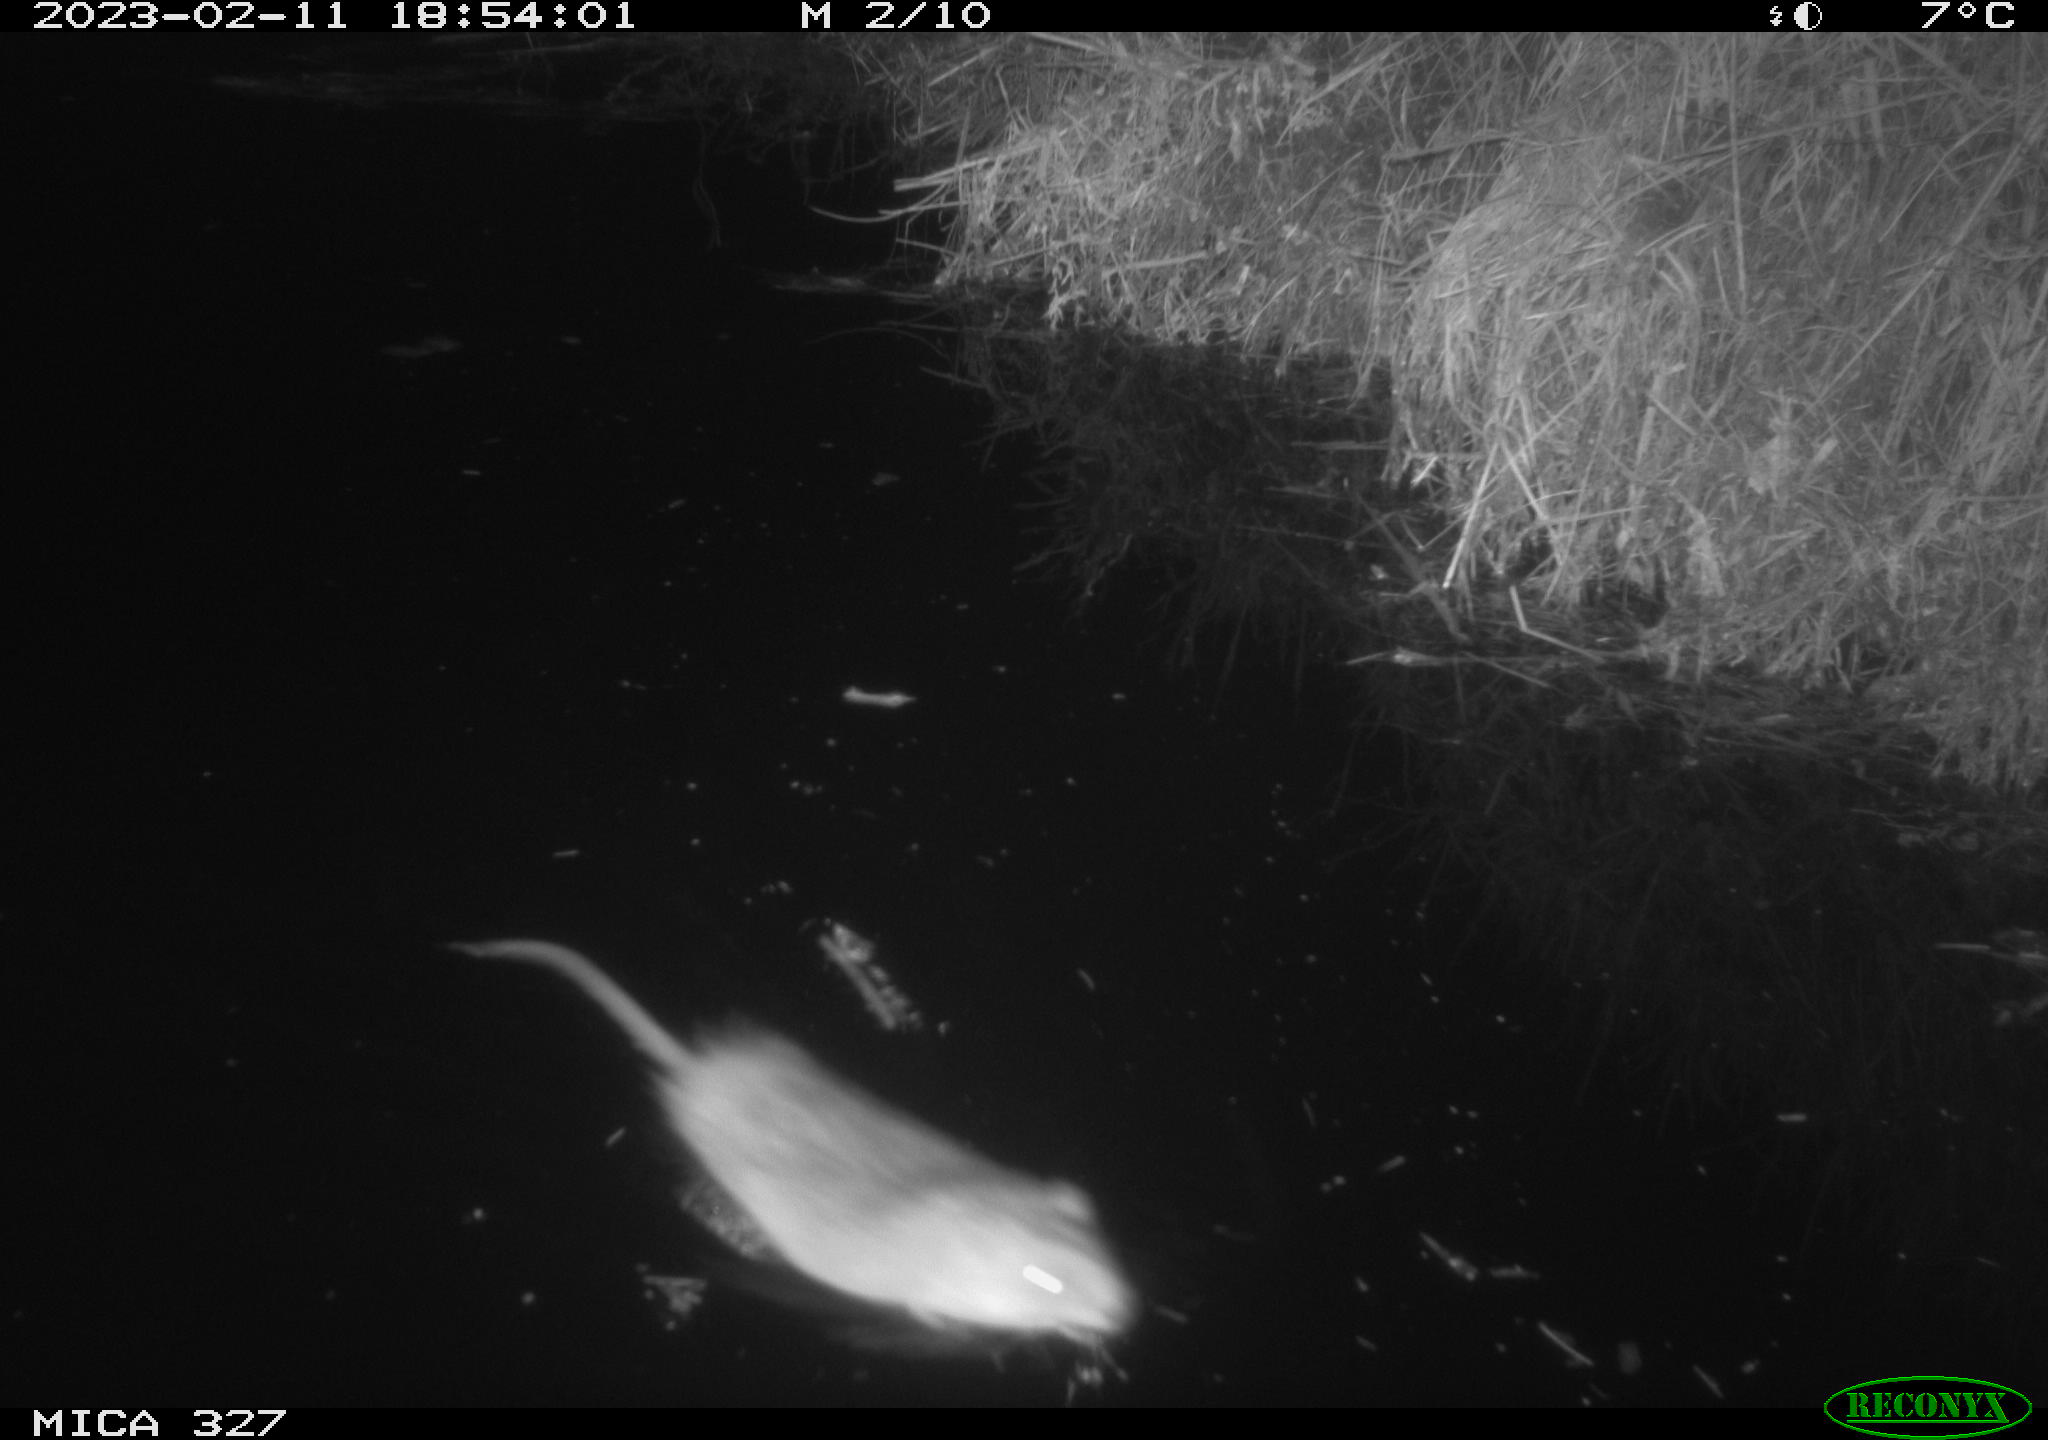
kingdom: Animalia
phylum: Chordata
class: Mammalia
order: Rodentia
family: Cricetidae
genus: Ondatra
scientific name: Ondatra zibethicus
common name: Muskrat
